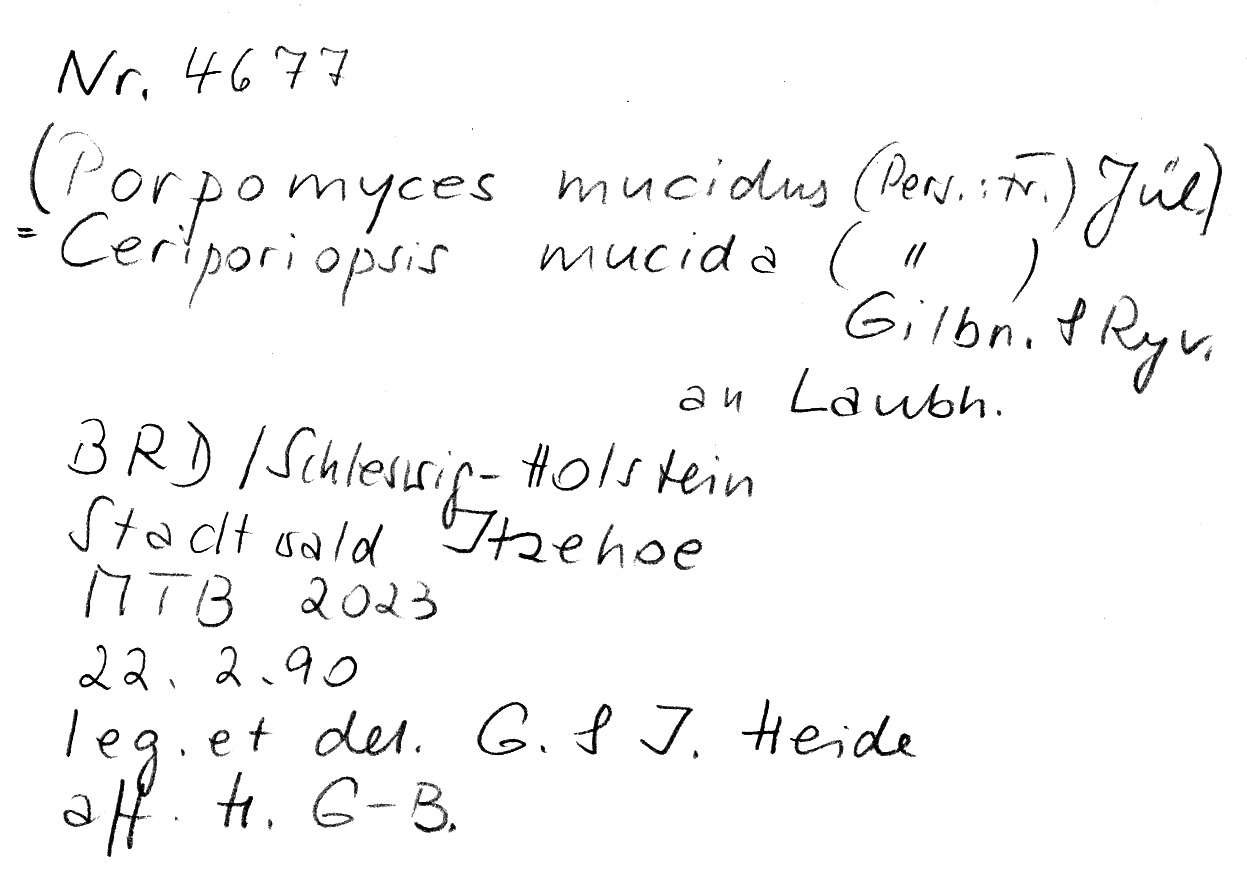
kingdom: Fungi
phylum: Basidiomycota
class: Agaricomycetes
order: Polyporales
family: Meruliaceae
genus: Ceriporiopsis
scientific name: Ceriporiopsis mucida
